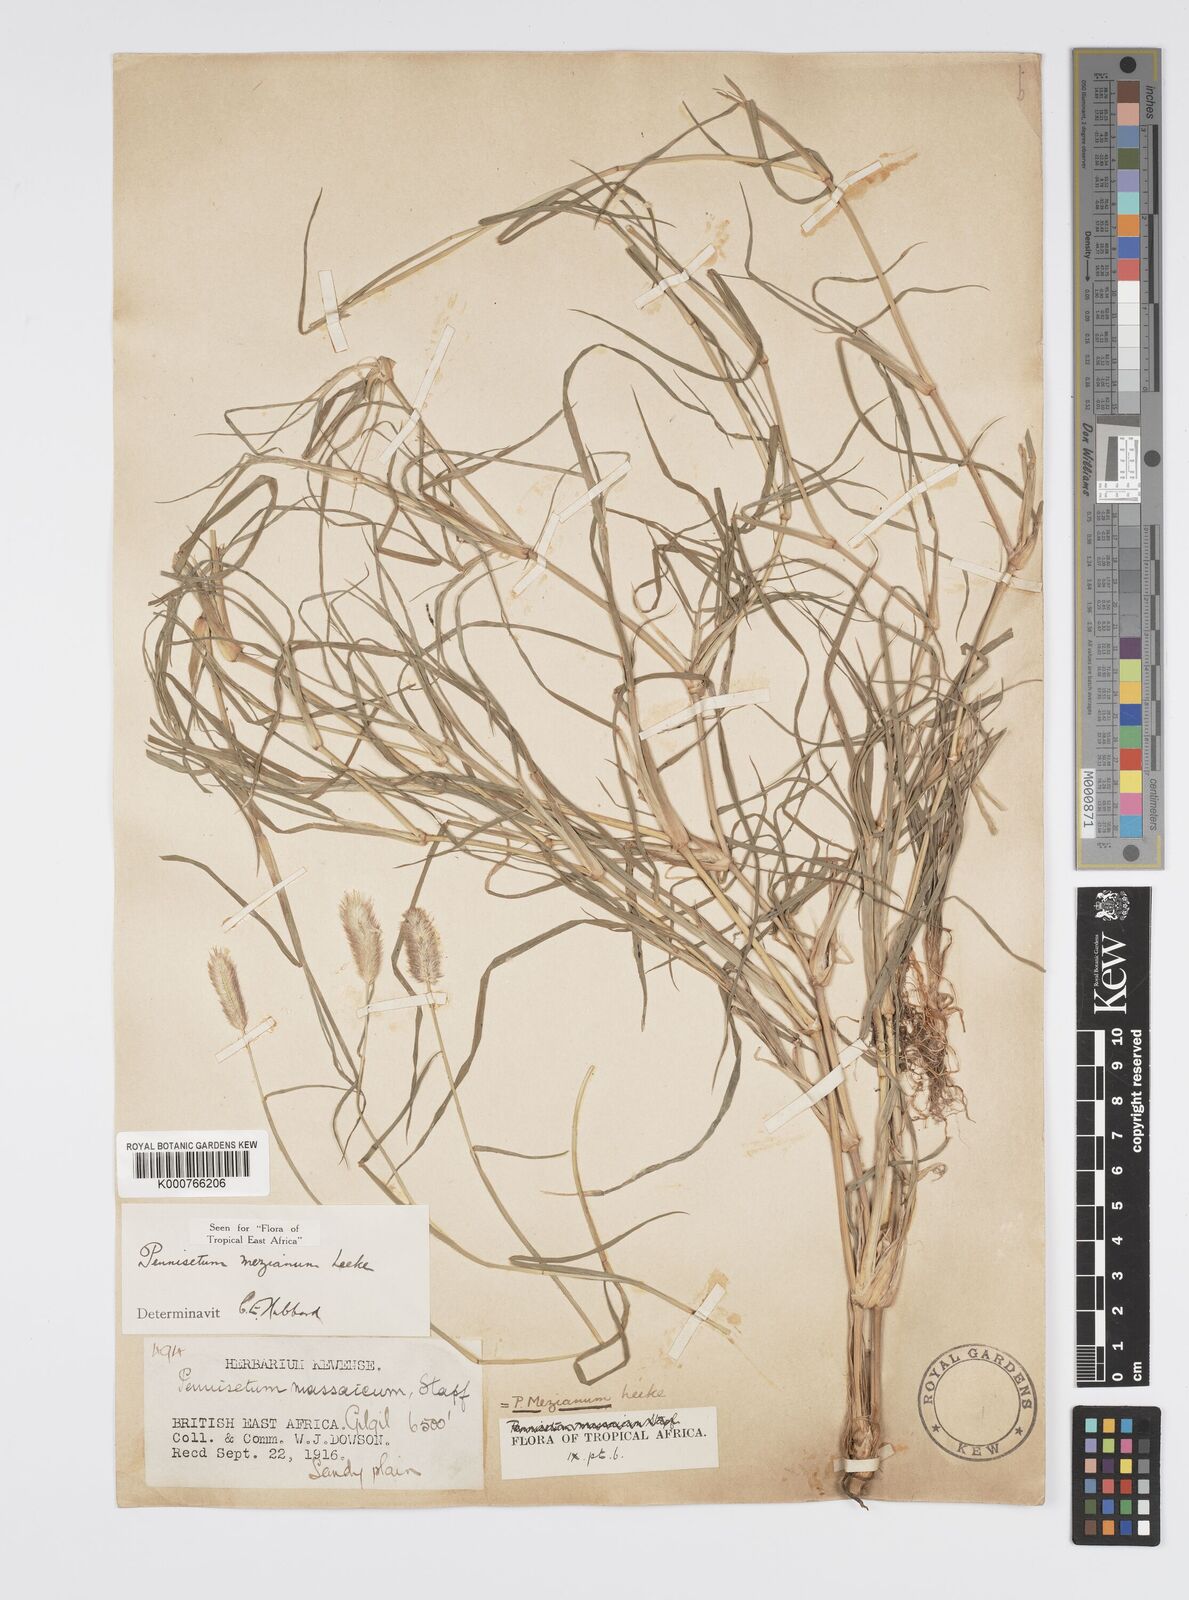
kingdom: Plantae
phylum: Tracheophyta
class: Liliopsida
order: Poales
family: Poaceae
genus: Cenchrus
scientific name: Cenchrus mezianus
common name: Bamboo grass
